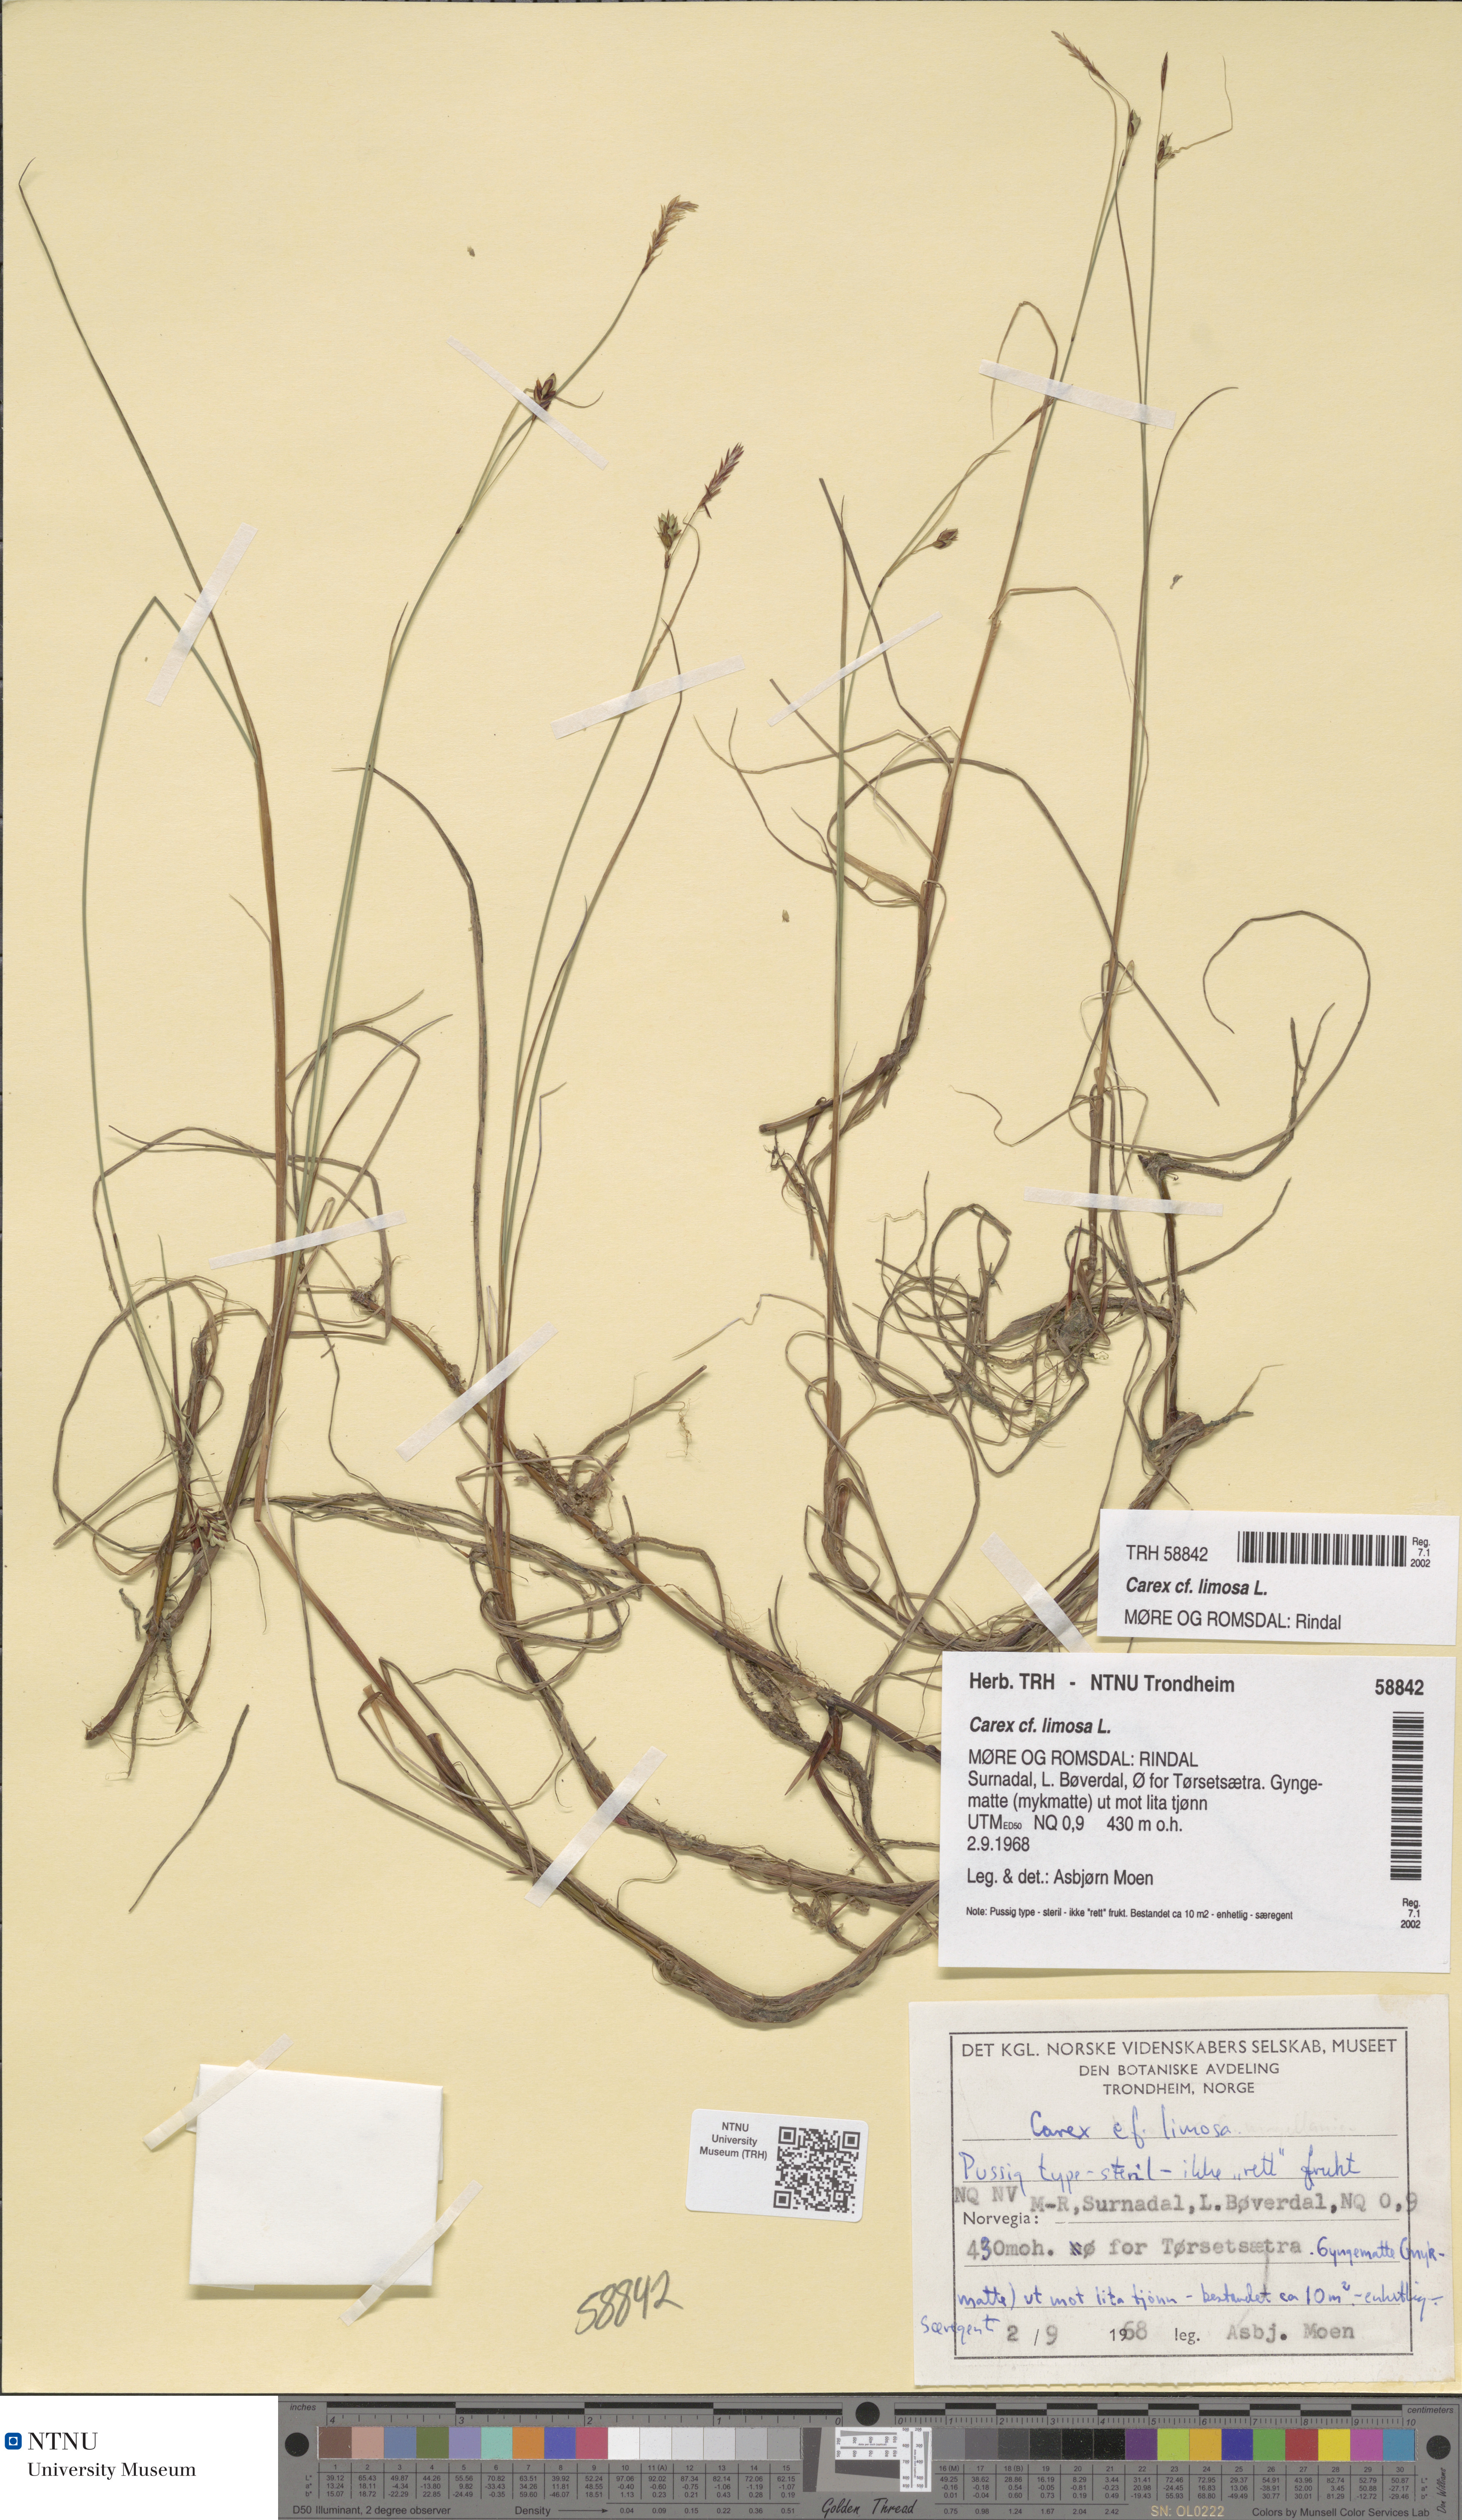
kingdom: Plantae
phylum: Tracheophyta
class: Liliopsida
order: Poales
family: Cyperaceae
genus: Carex
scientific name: Carex limosa
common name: Bog sedge
